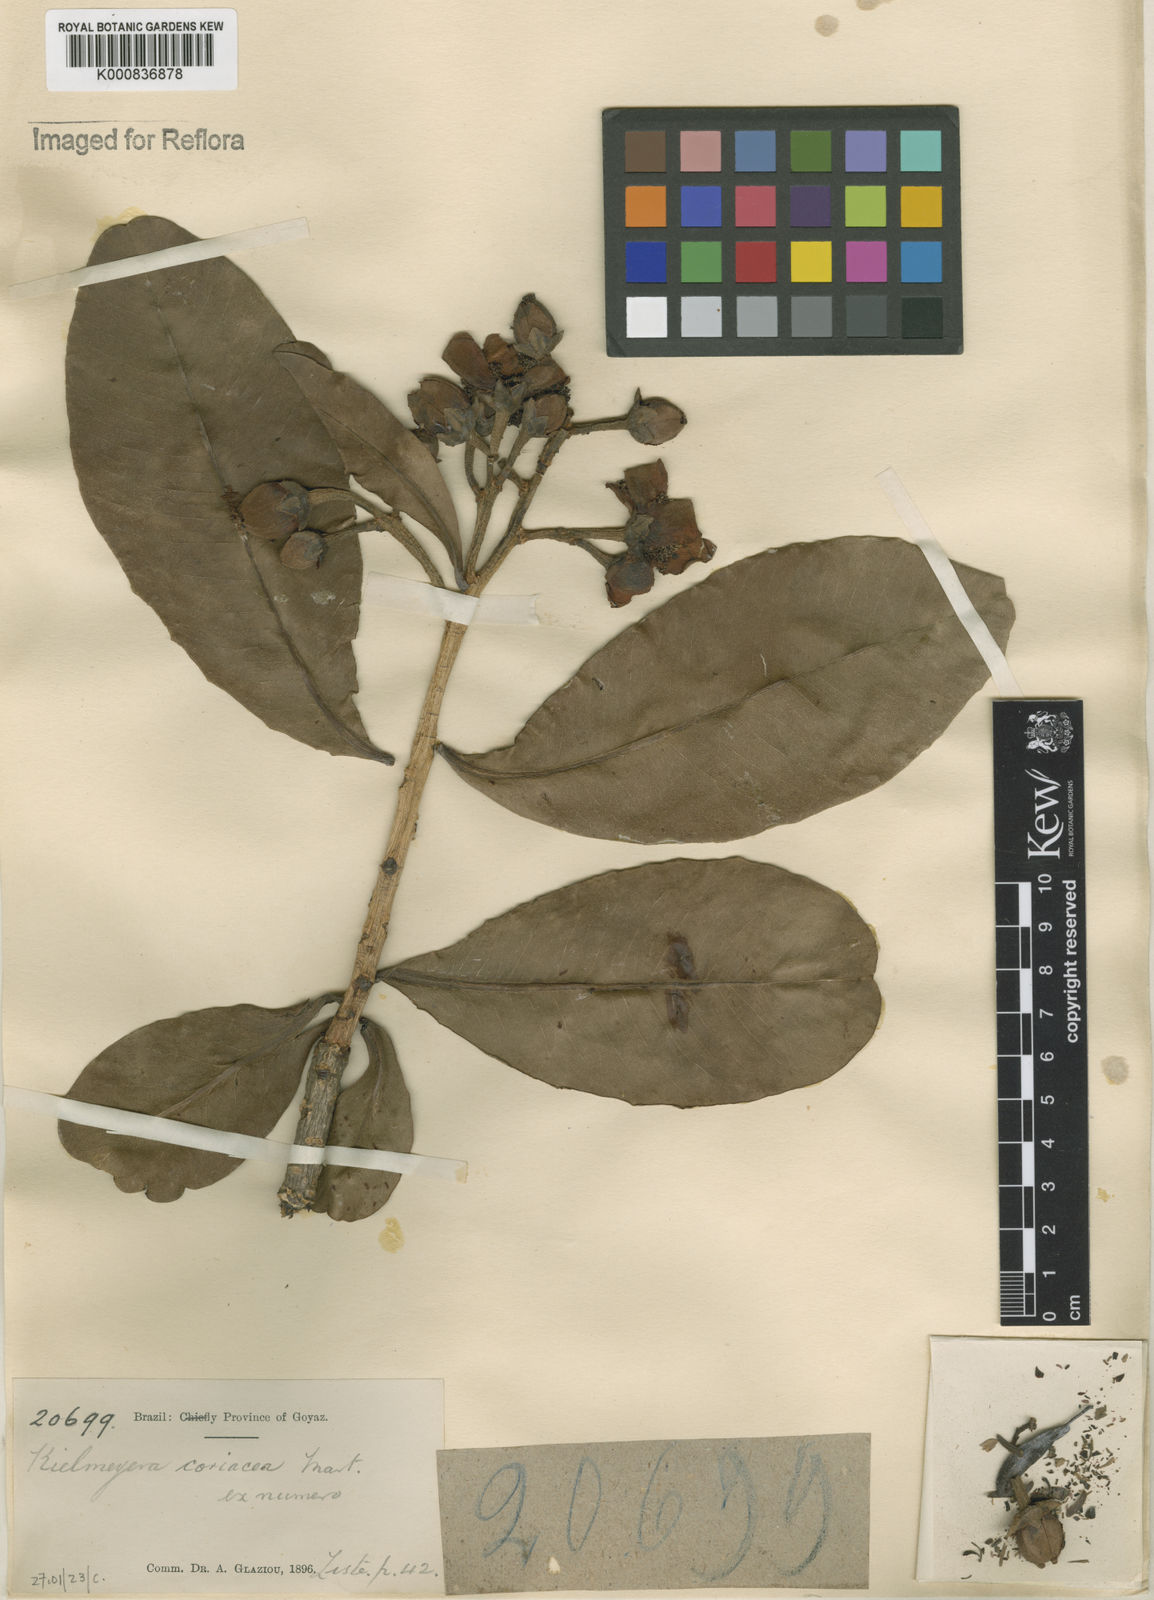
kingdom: Plantae
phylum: Tracheophyta
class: Magnoliopsida
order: Malpighiales
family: Calophyllaceae
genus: Kielmeyera
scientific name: Kielmeyera coriacea
